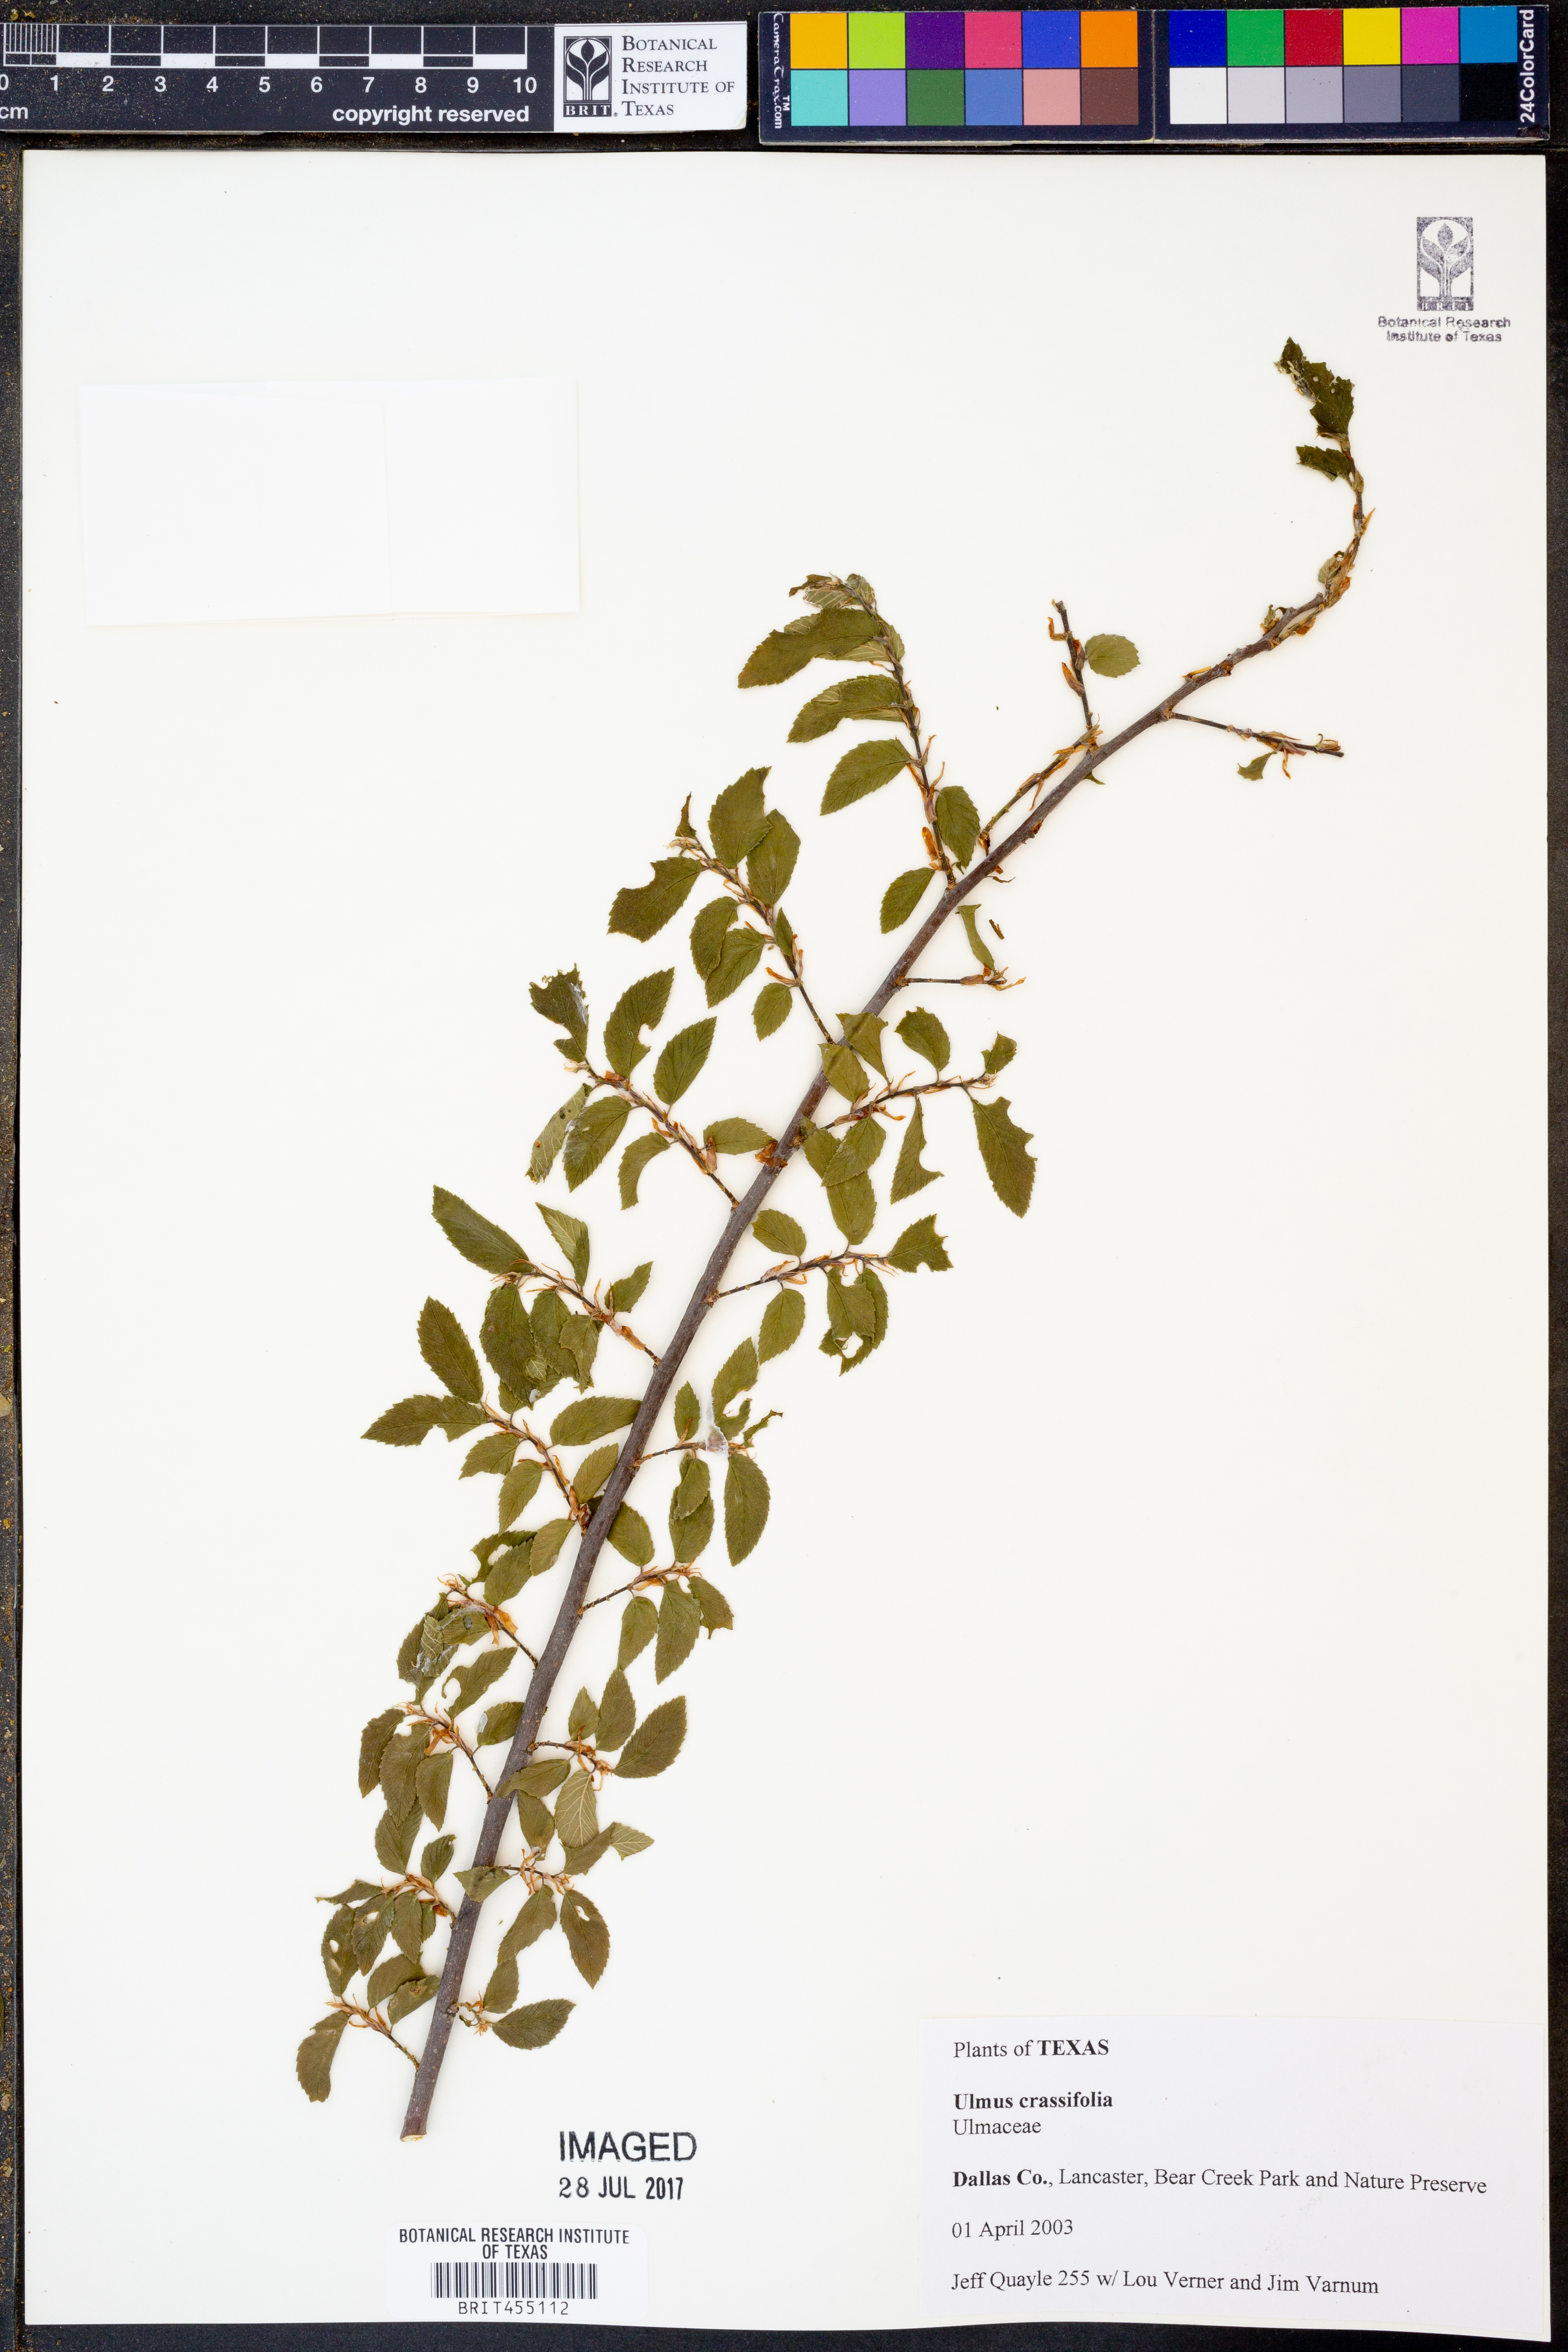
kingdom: Plantae
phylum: Tracheophyta
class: Magnoliopsida
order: Rosales
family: Ulmaceae
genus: Ulmus
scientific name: Ulmus crassifolia
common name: Basket elm
